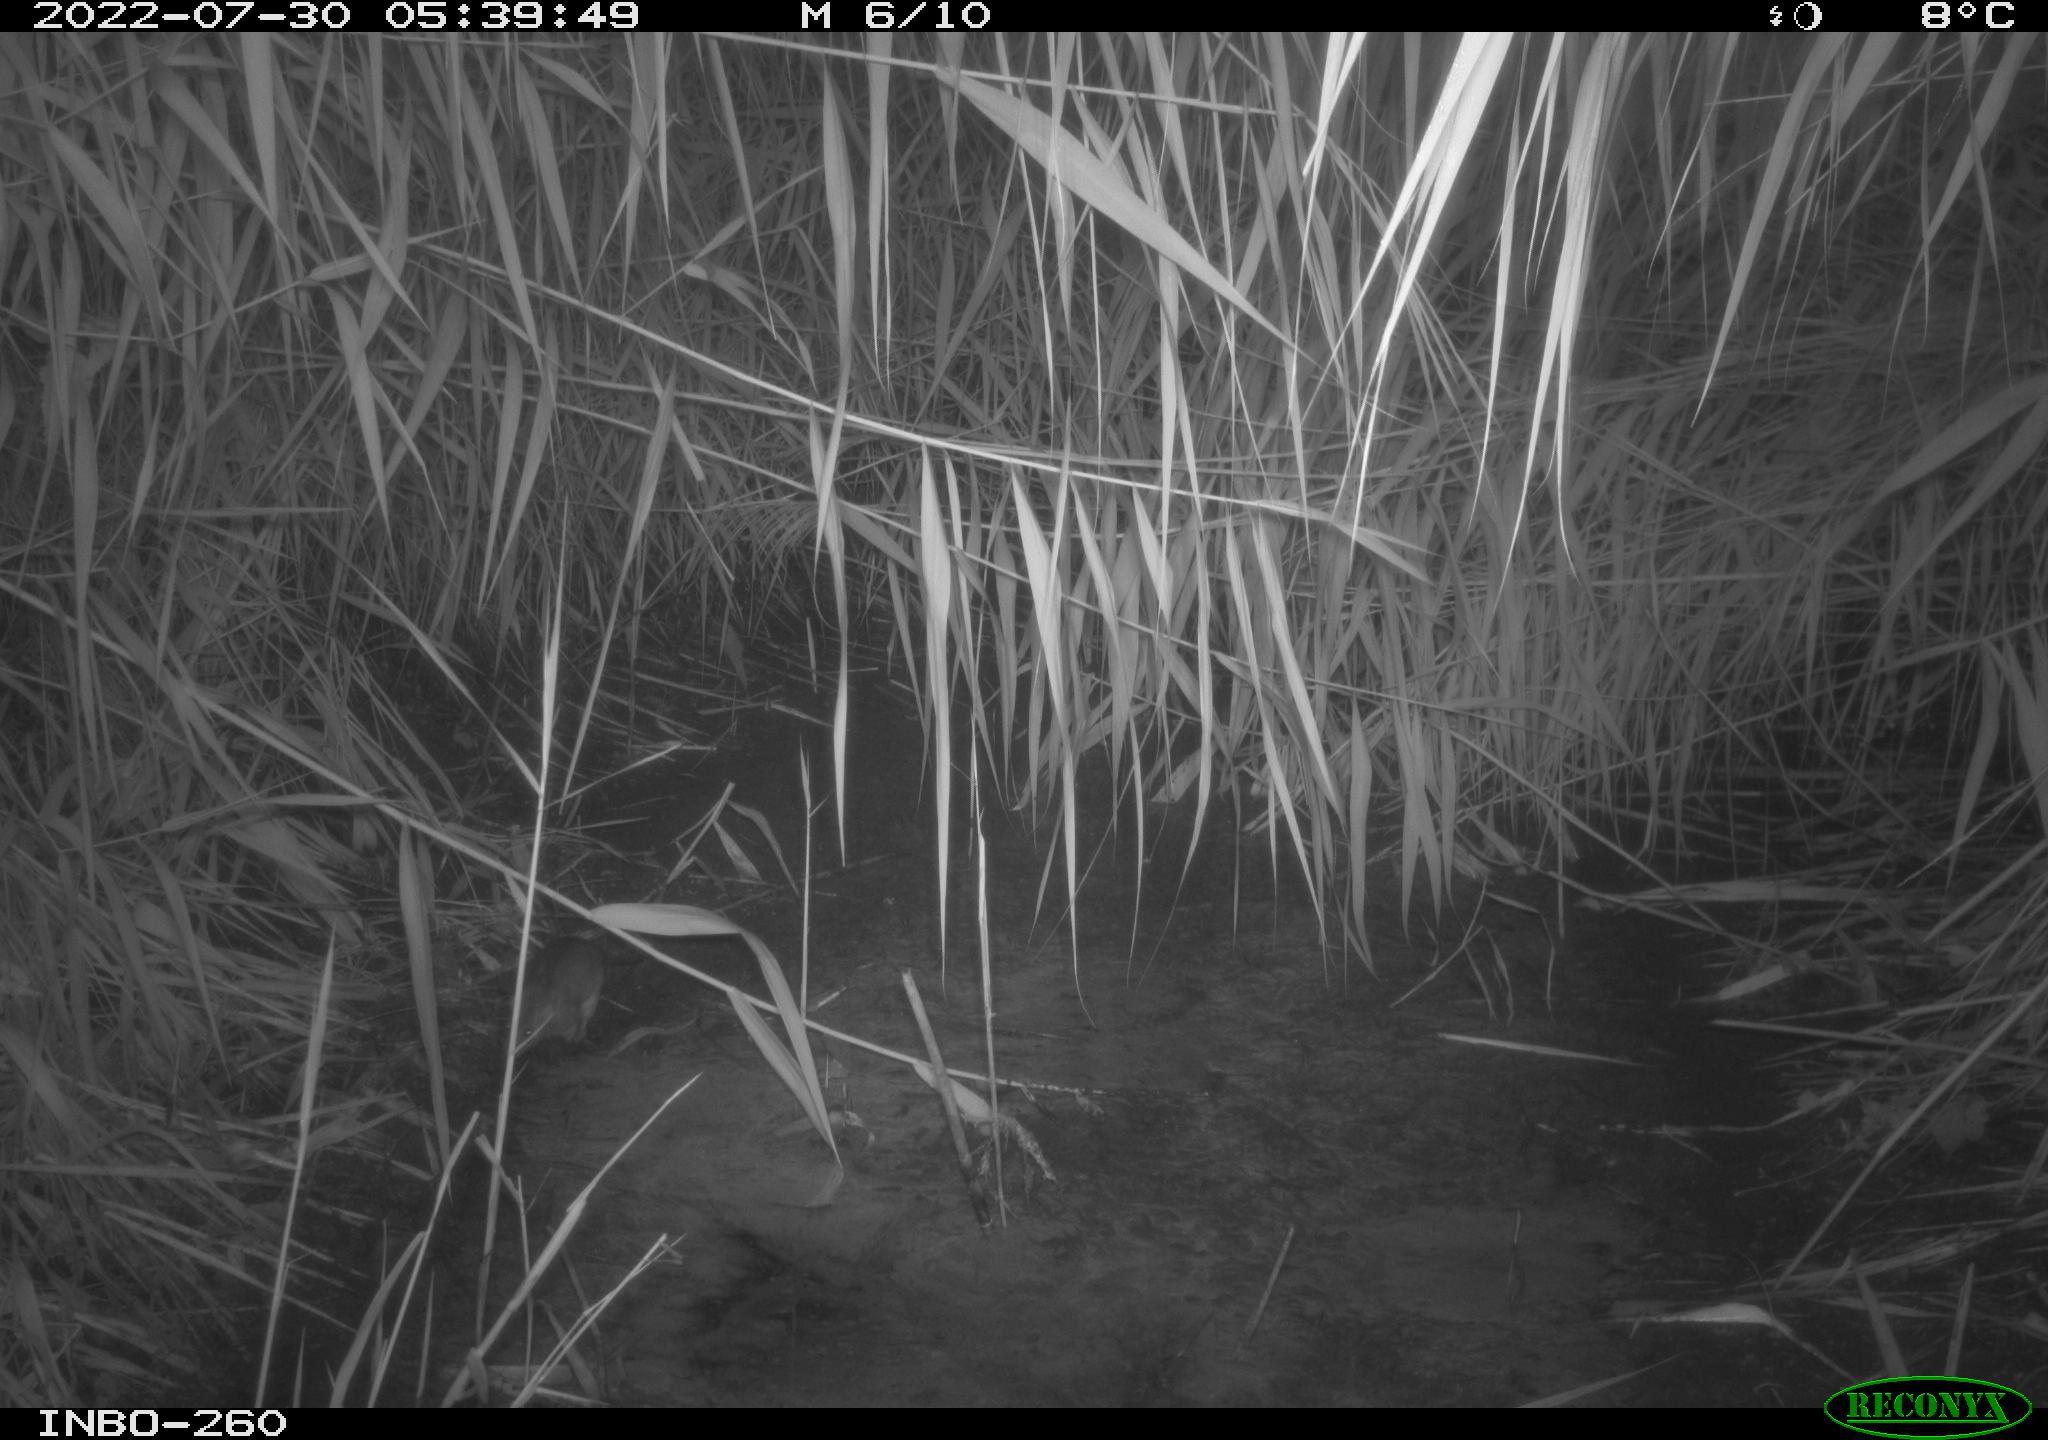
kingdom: Animalia
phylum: Chordata
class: Mammalia
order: Rodentia
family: Muridae
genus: Rattus
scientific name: Rattus norvegicus
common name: Brown rat
